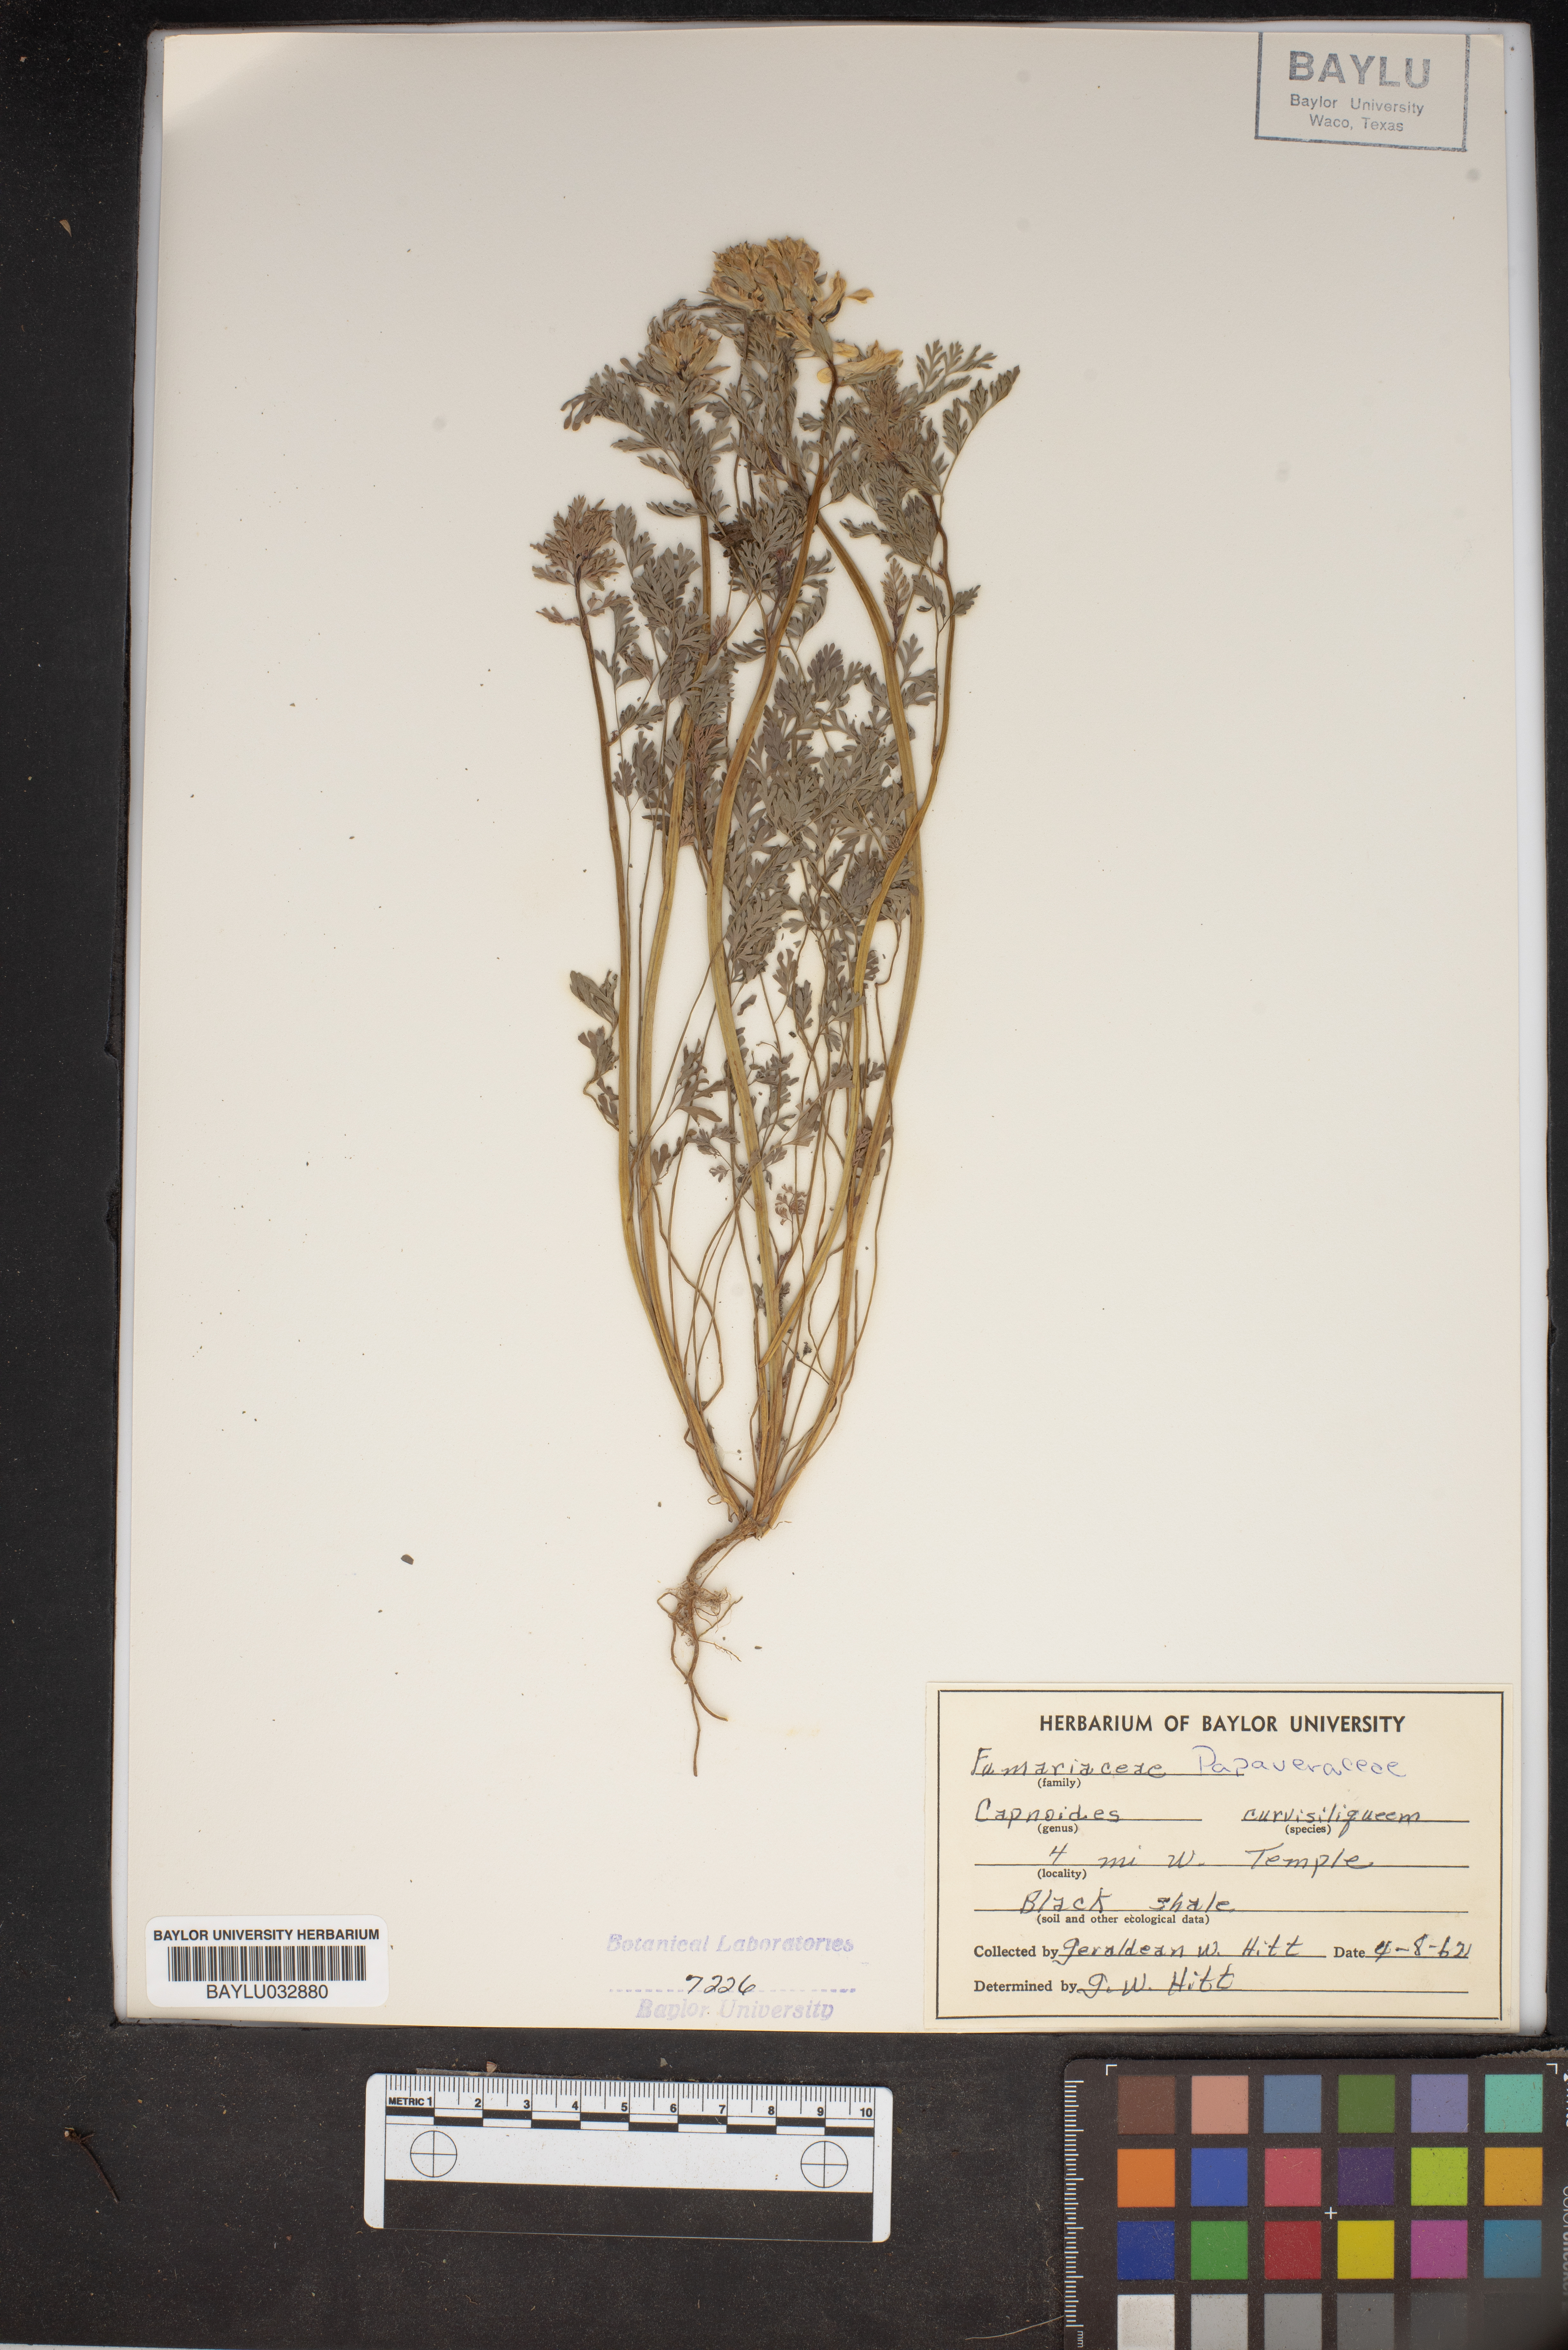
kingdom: Plantae
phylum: Tracheophyta
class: Magnoliopsida
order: Ranunculales
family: Papaveraceae
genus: Corydalis
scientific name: Corydalis curvisiliqua
